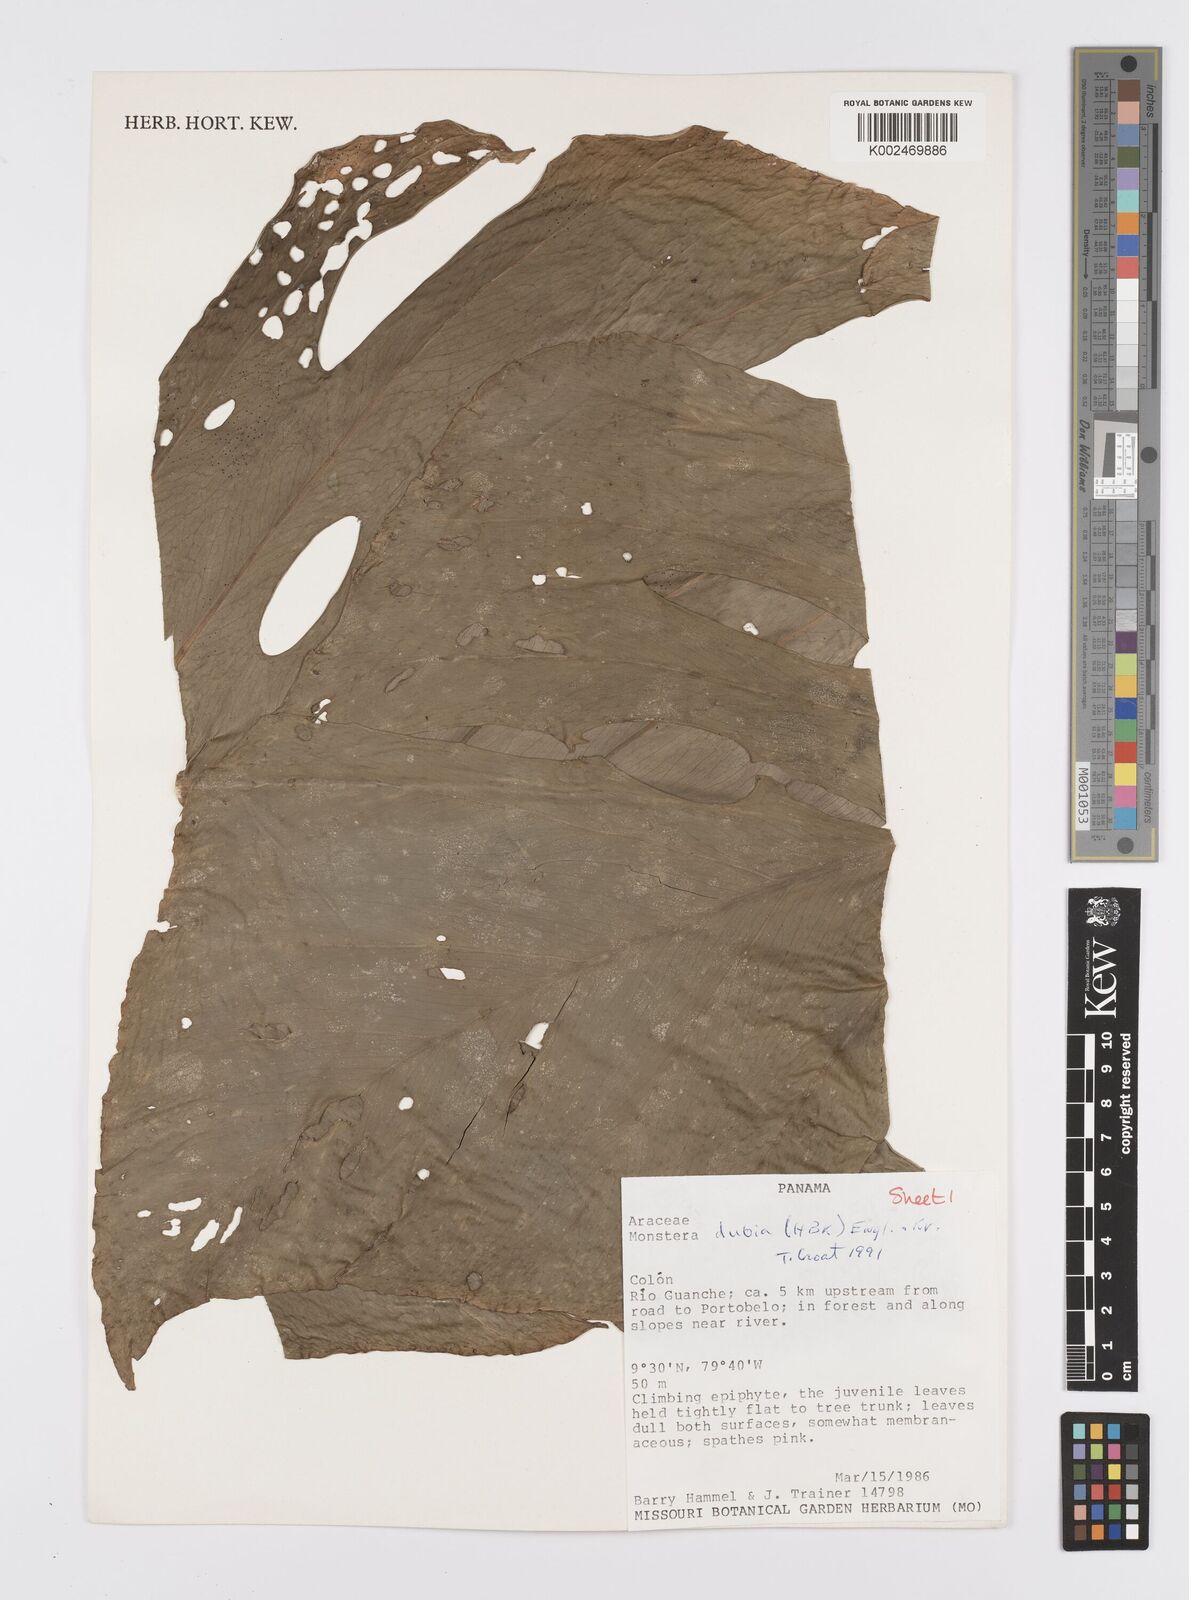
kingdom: Plantae
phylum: Tracheophyta
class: Liliopsida
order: Alismatales
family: Araceae
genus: Monstera
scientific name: Monstera dubia
